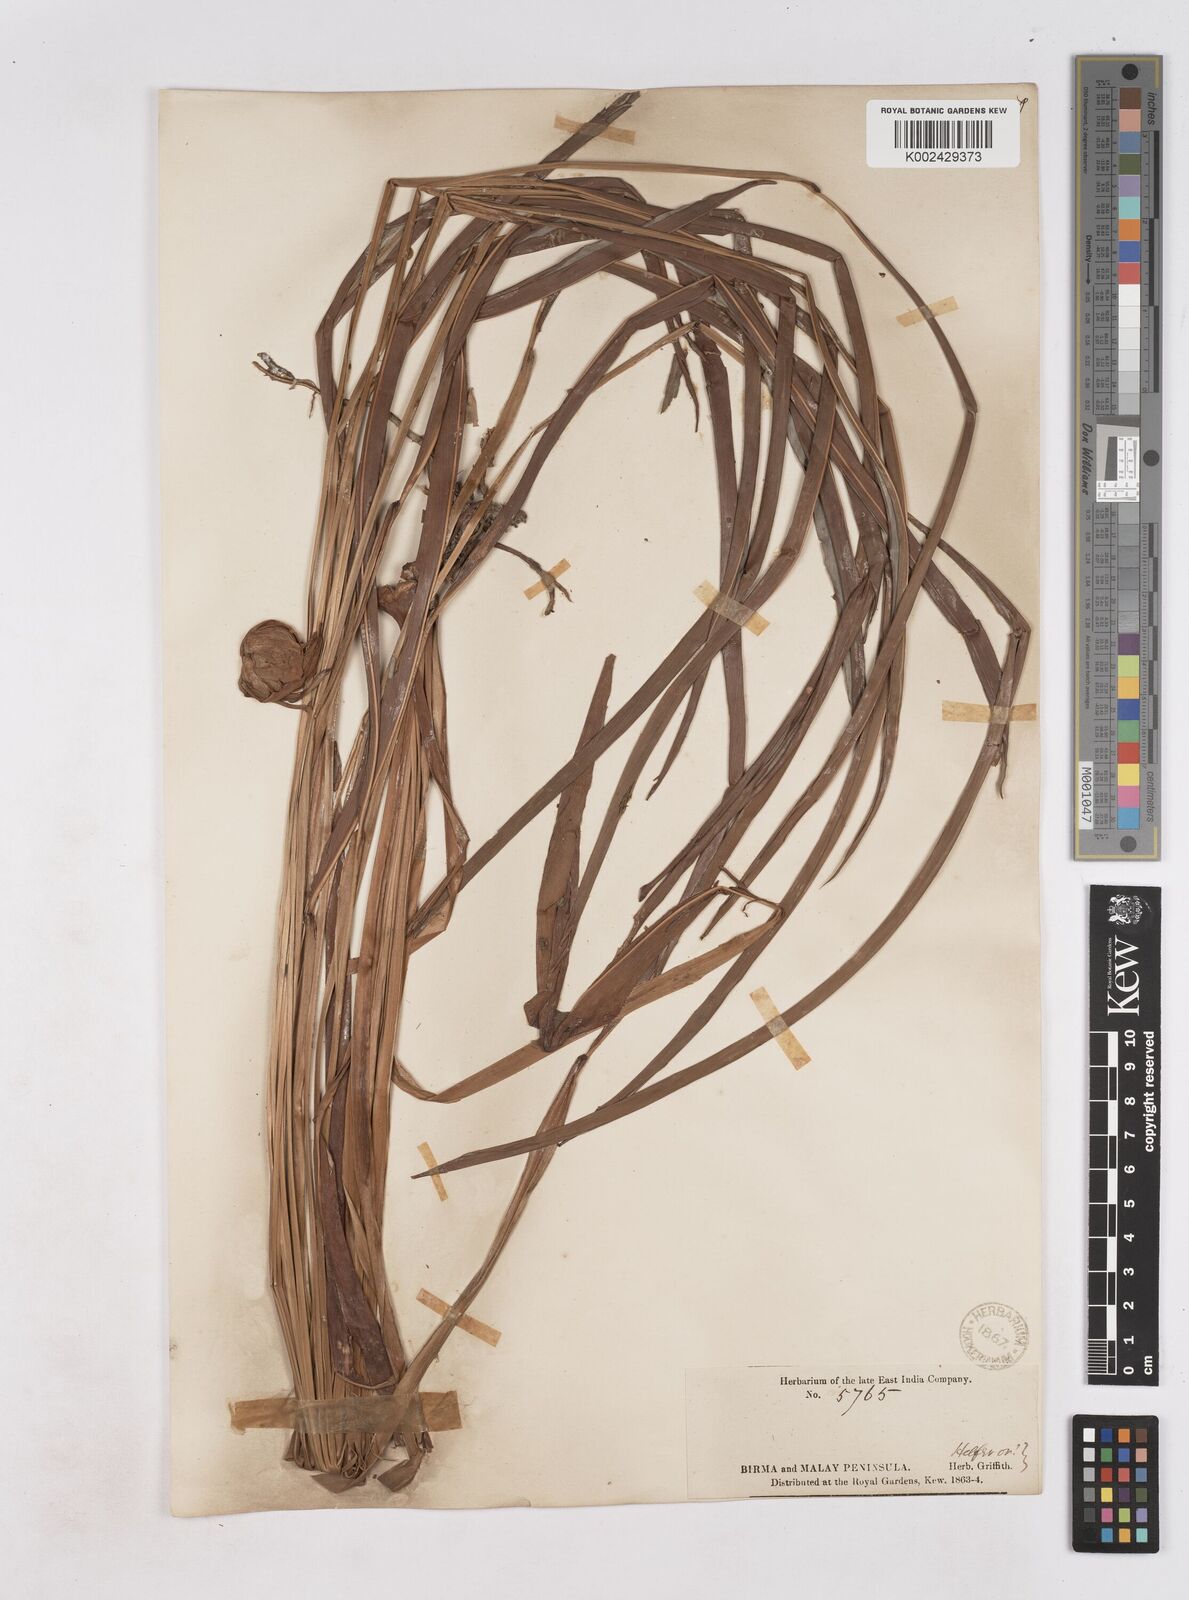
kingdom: Plantae
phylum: Tracheophyta
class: Liliopsida
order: Zingiberales
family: Zingiberaceae
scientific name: Zingiberaceae
